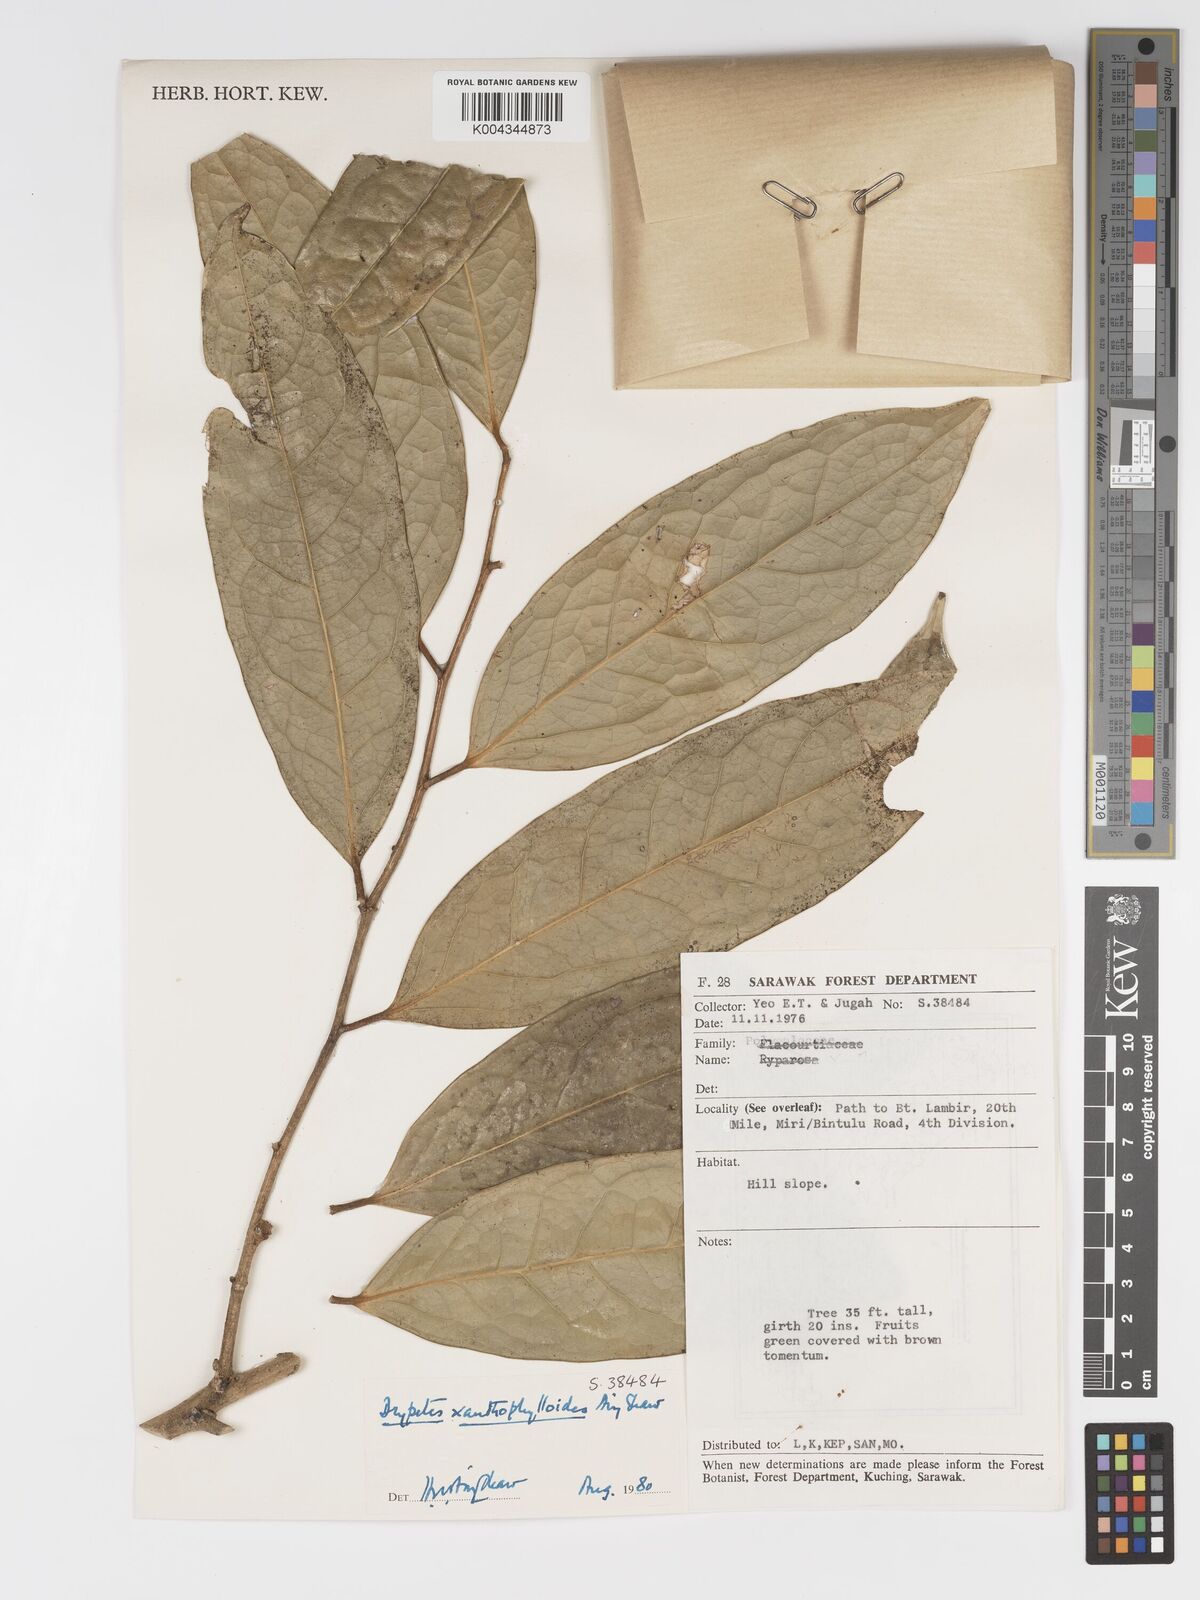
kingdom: Plantae
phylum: Tracheophyta
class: Magnoliopsida
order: Malpighiales
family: Putranjivaceae
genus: Drypetes
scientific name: Drypetes xanthophylloides
